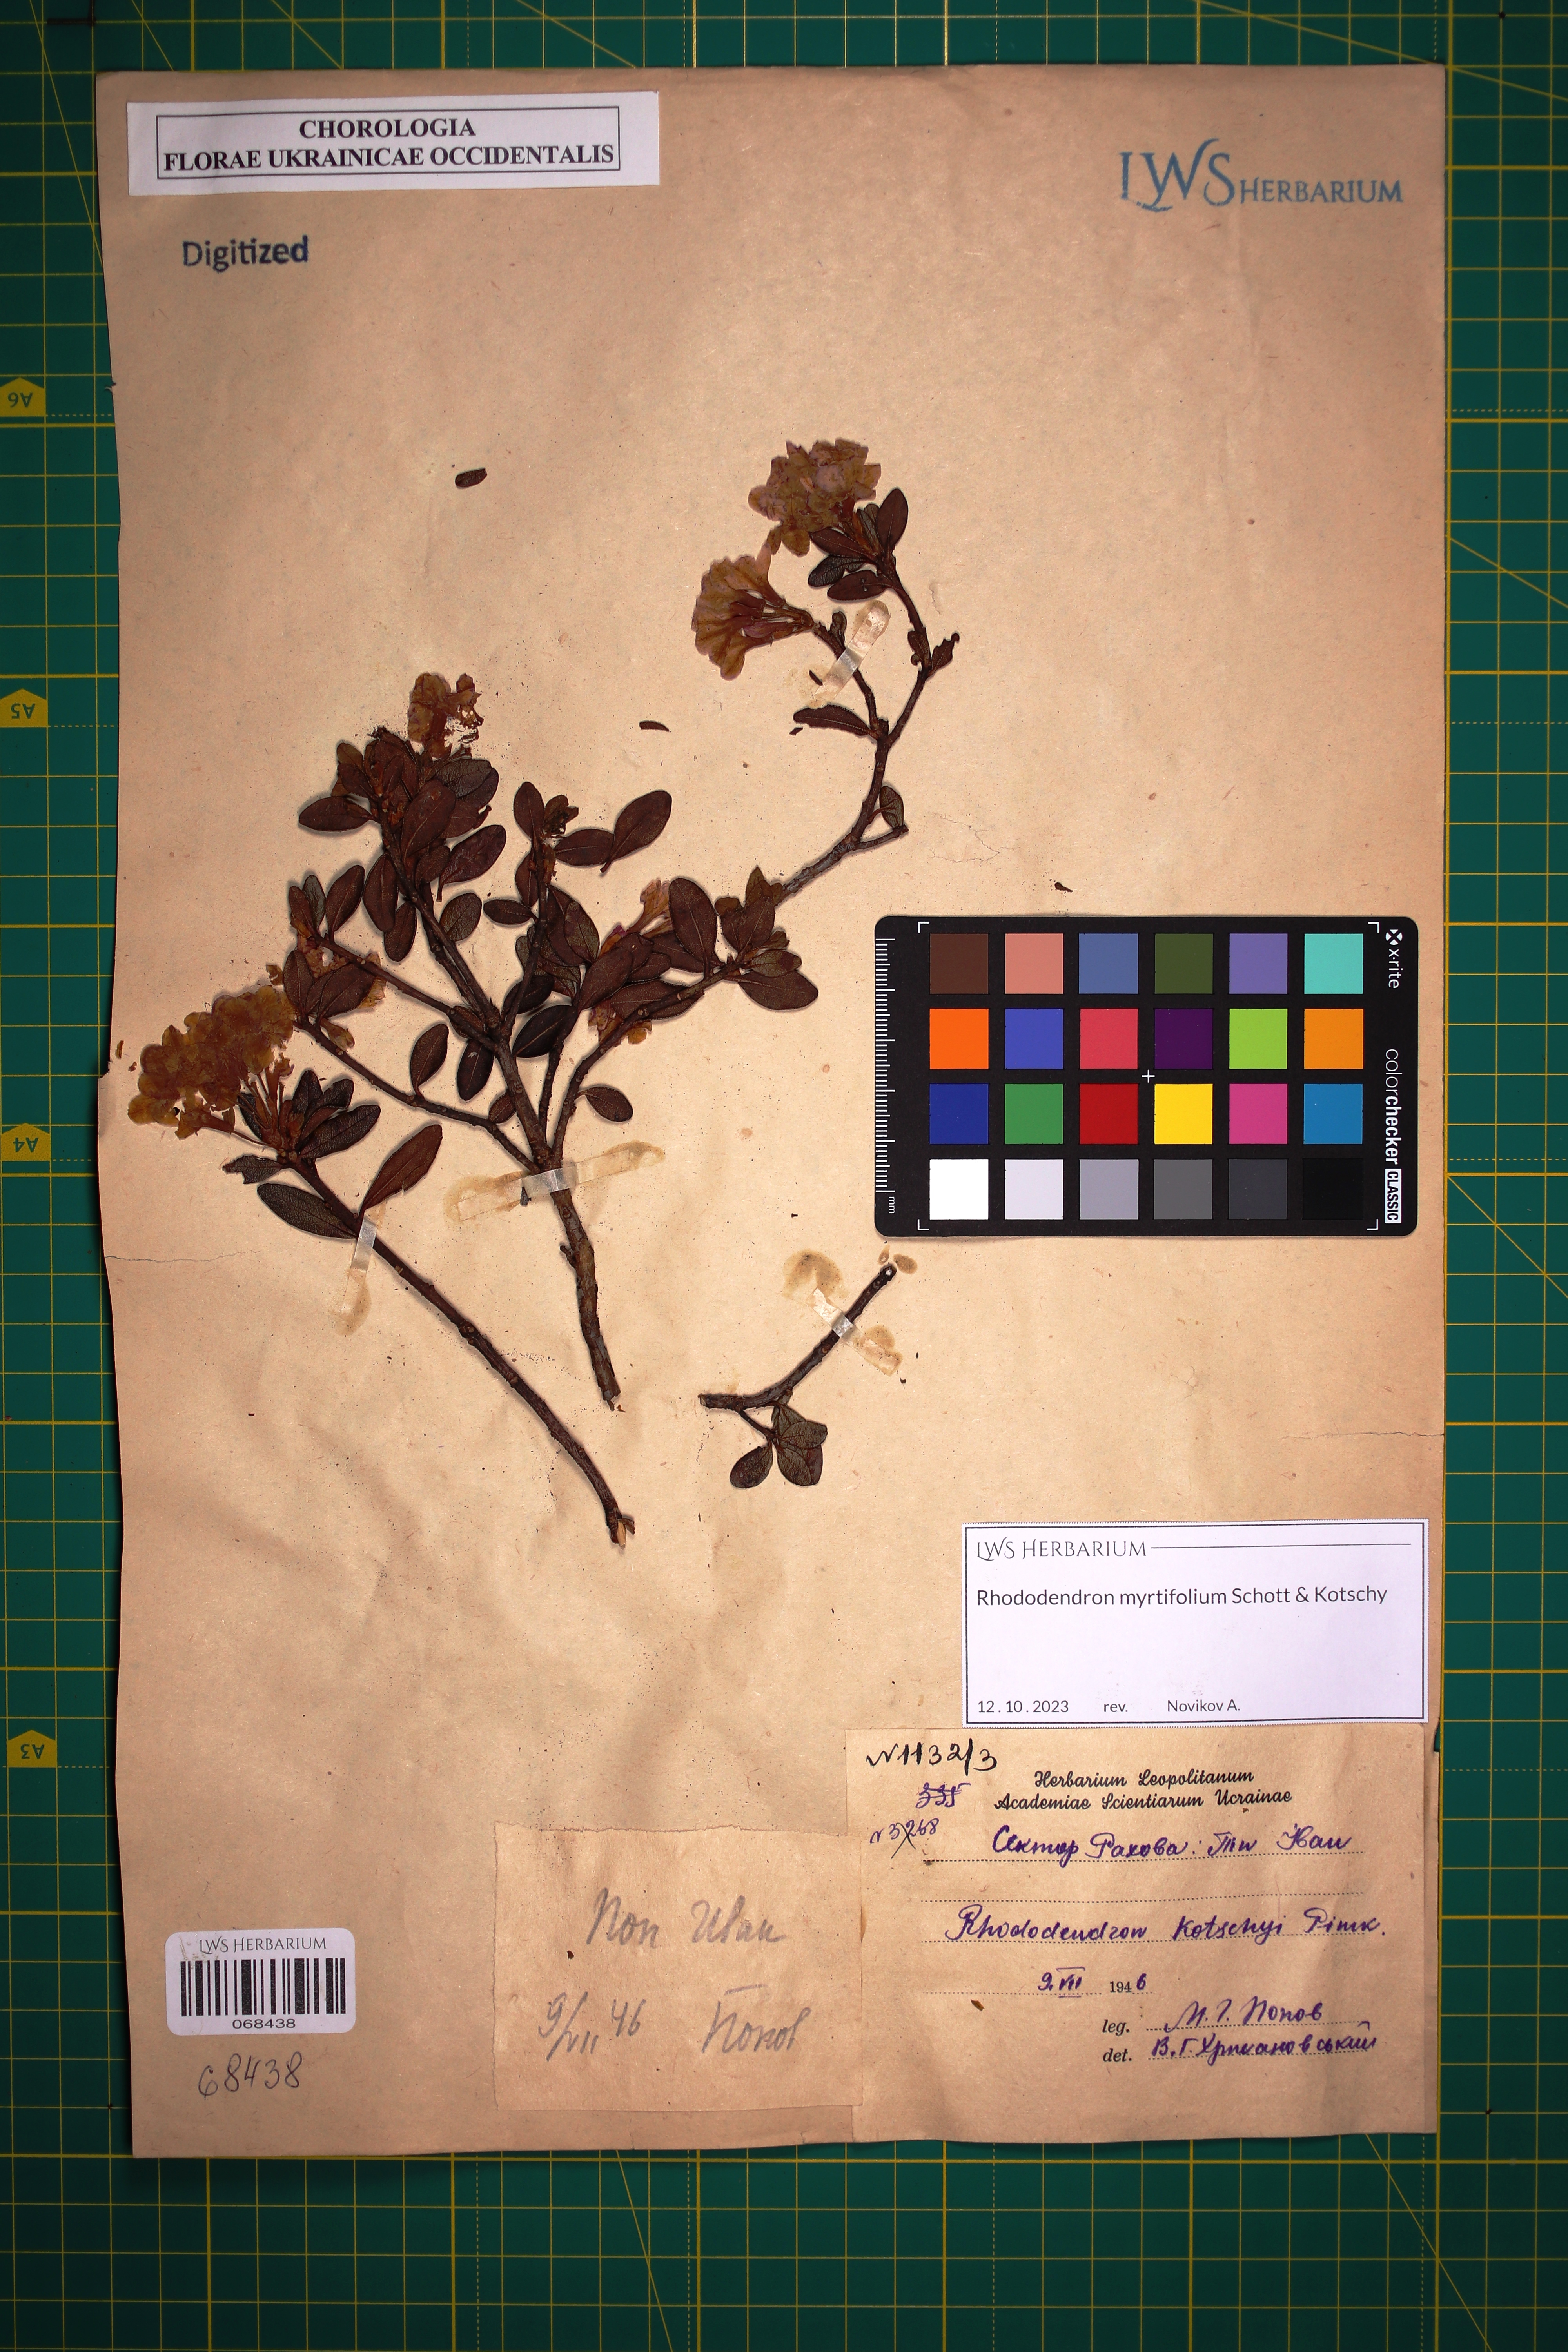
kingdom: Plantae
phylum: Tracheophyta
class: Magnoliopsida
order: Ericales
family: Ericaceae
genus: Rhododendron
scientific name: Rhododendron kotschyi
